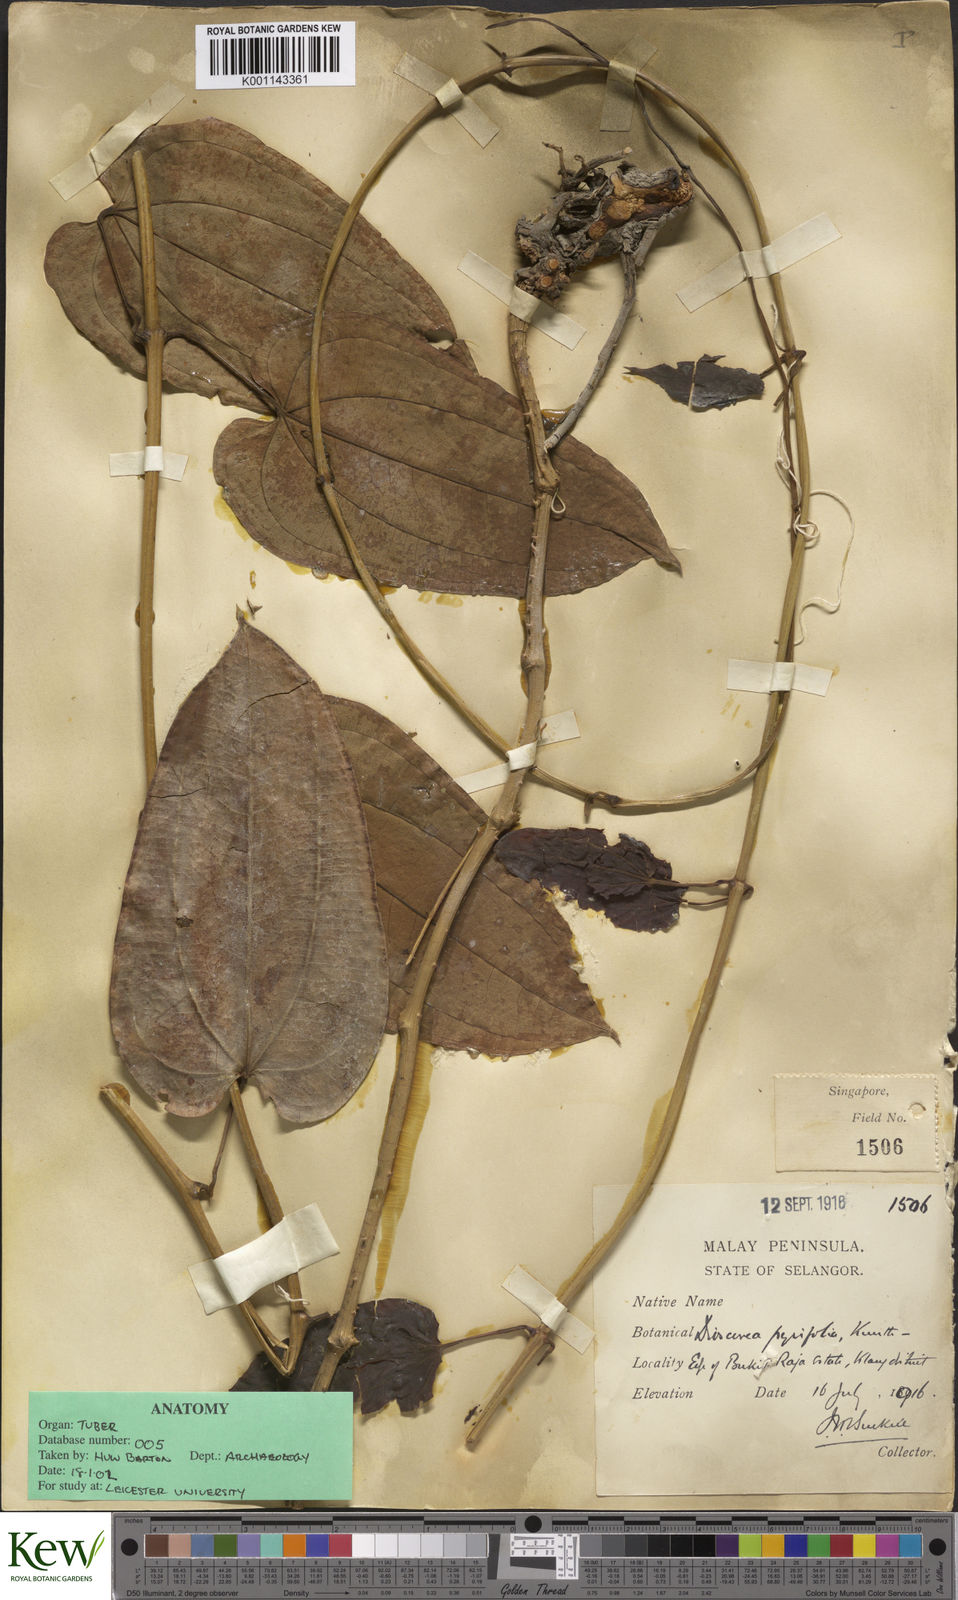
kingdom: Plantae
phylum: Tracheophyta
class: Liliopsida
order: Dioscoreales
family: Dioscoreaceae
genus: Dioscorea
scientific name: Dioscorea pyrifolia
